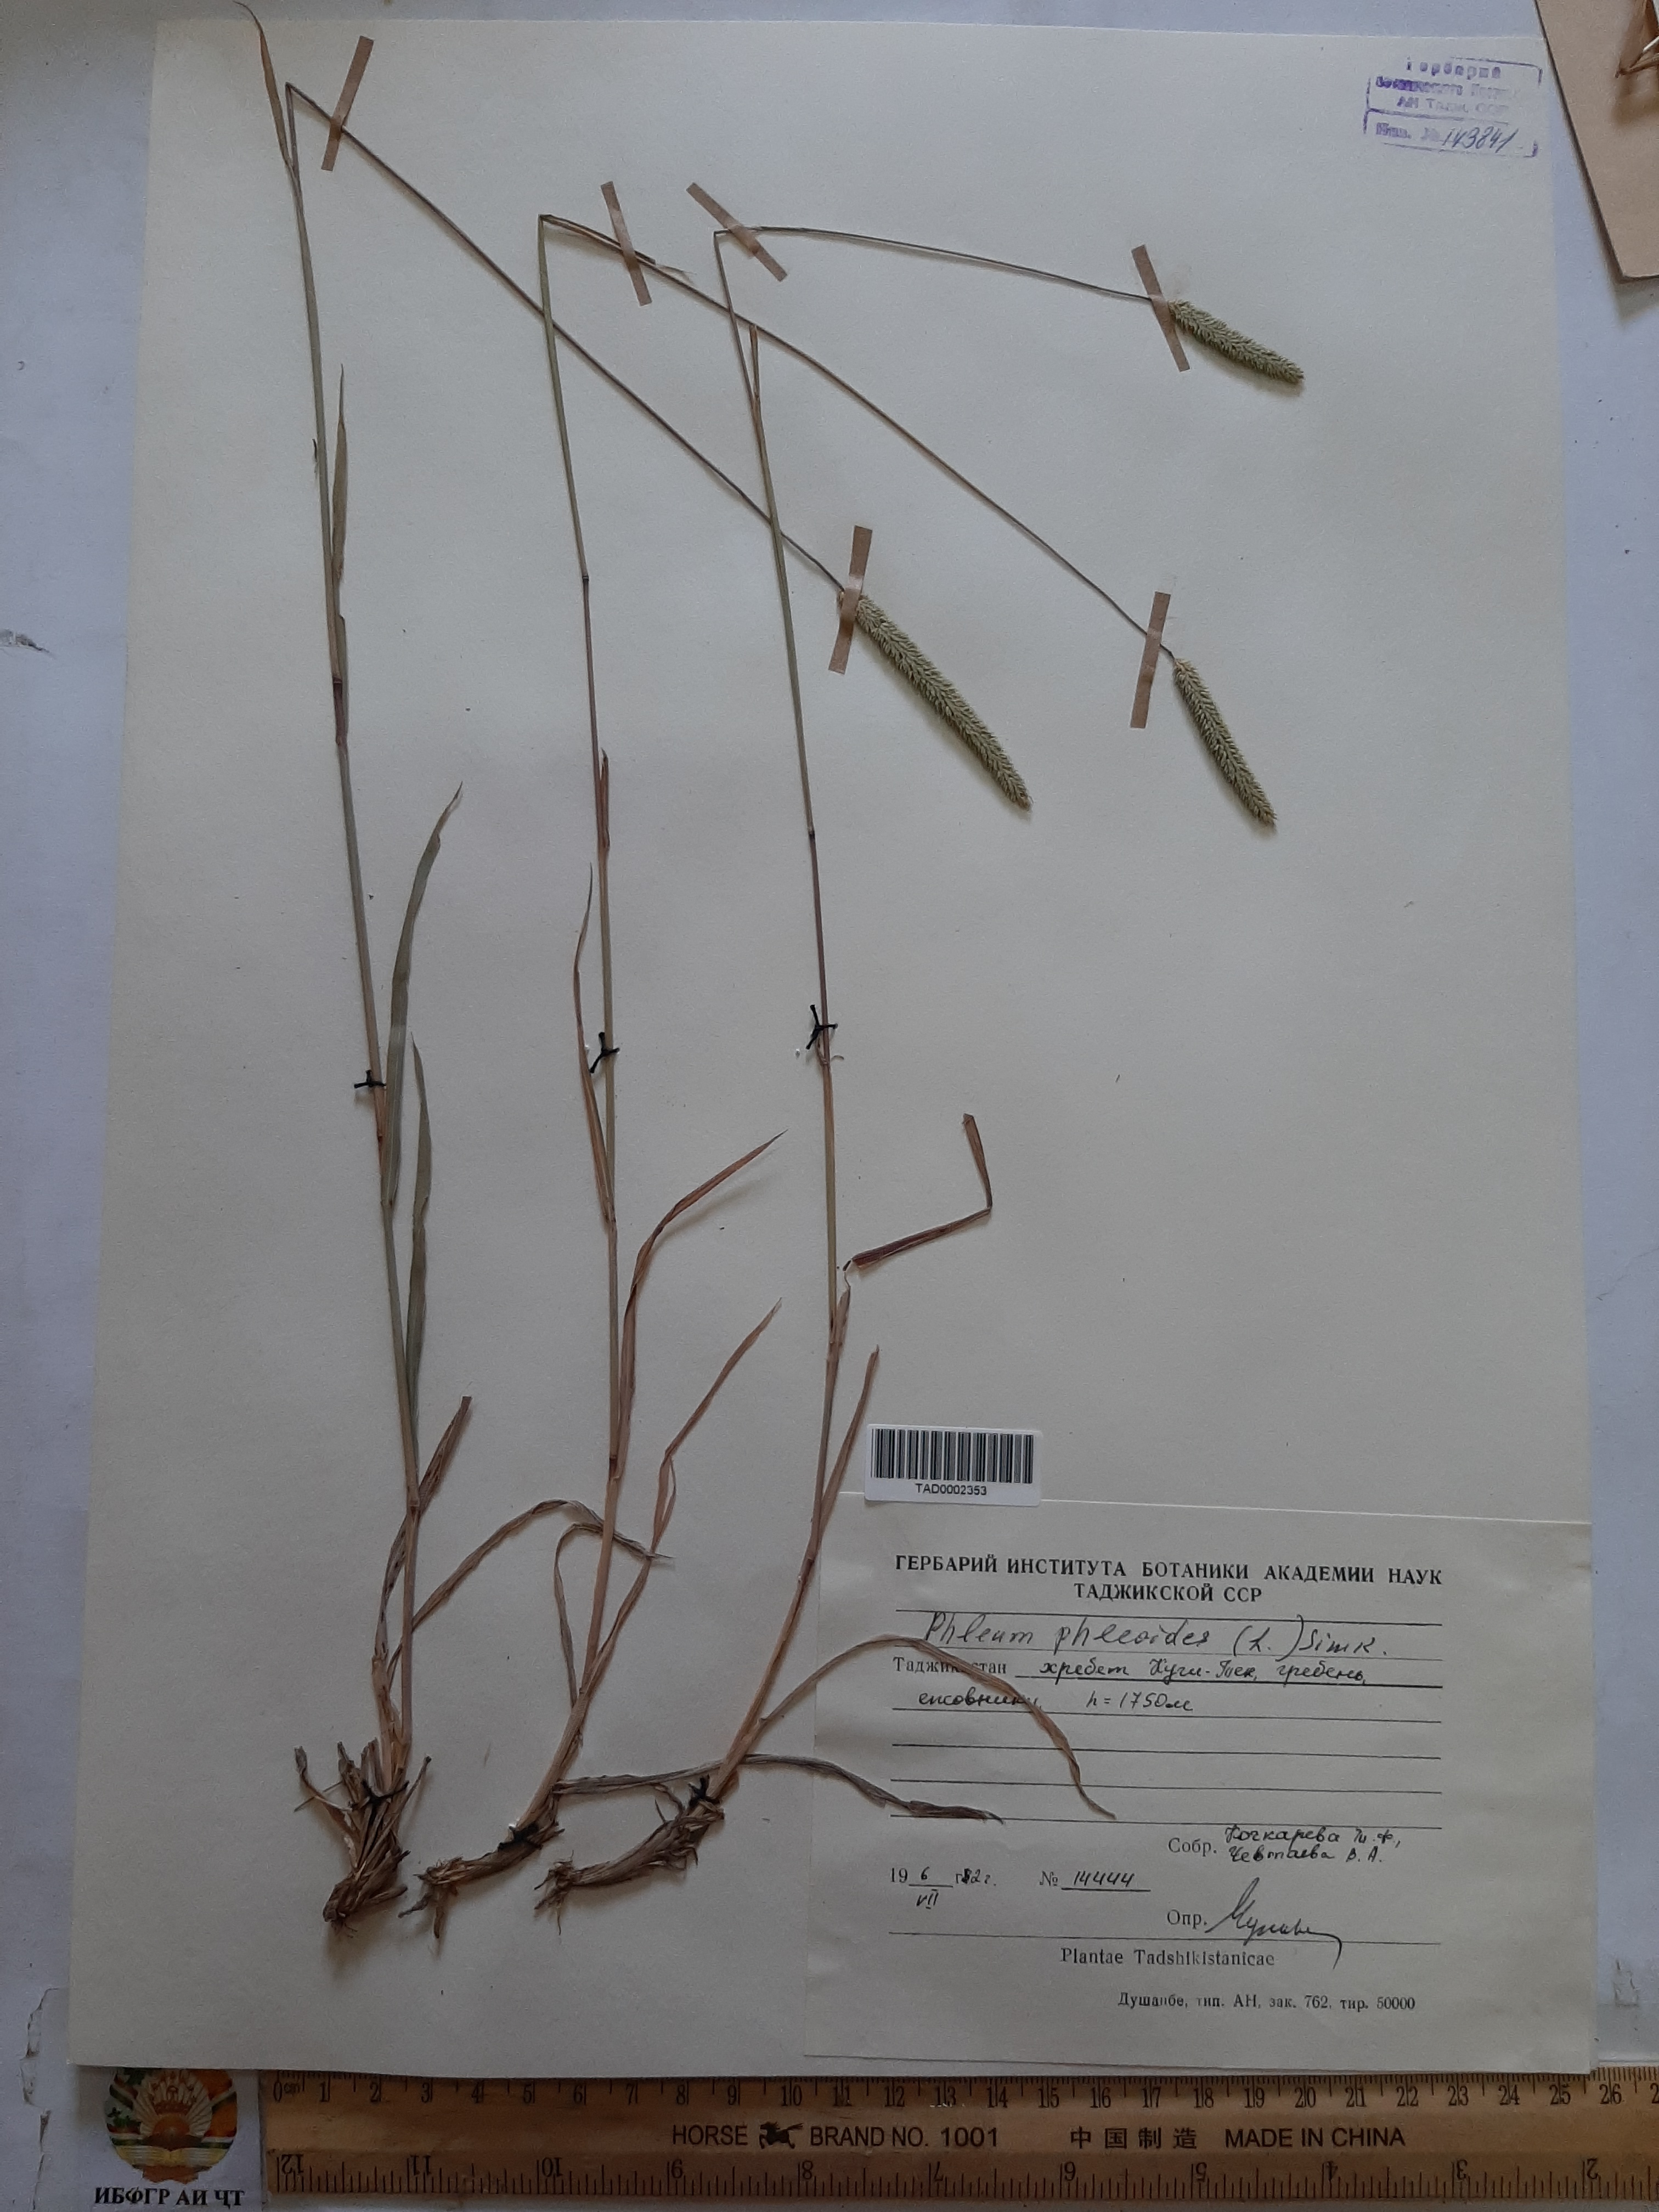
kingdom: Plantae
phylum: Tracheophyta
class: Liliopsida
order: Poales
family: Poaceae
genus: Phleum
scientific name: Phleum phleoides
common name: Purple-stem cat's-tail
